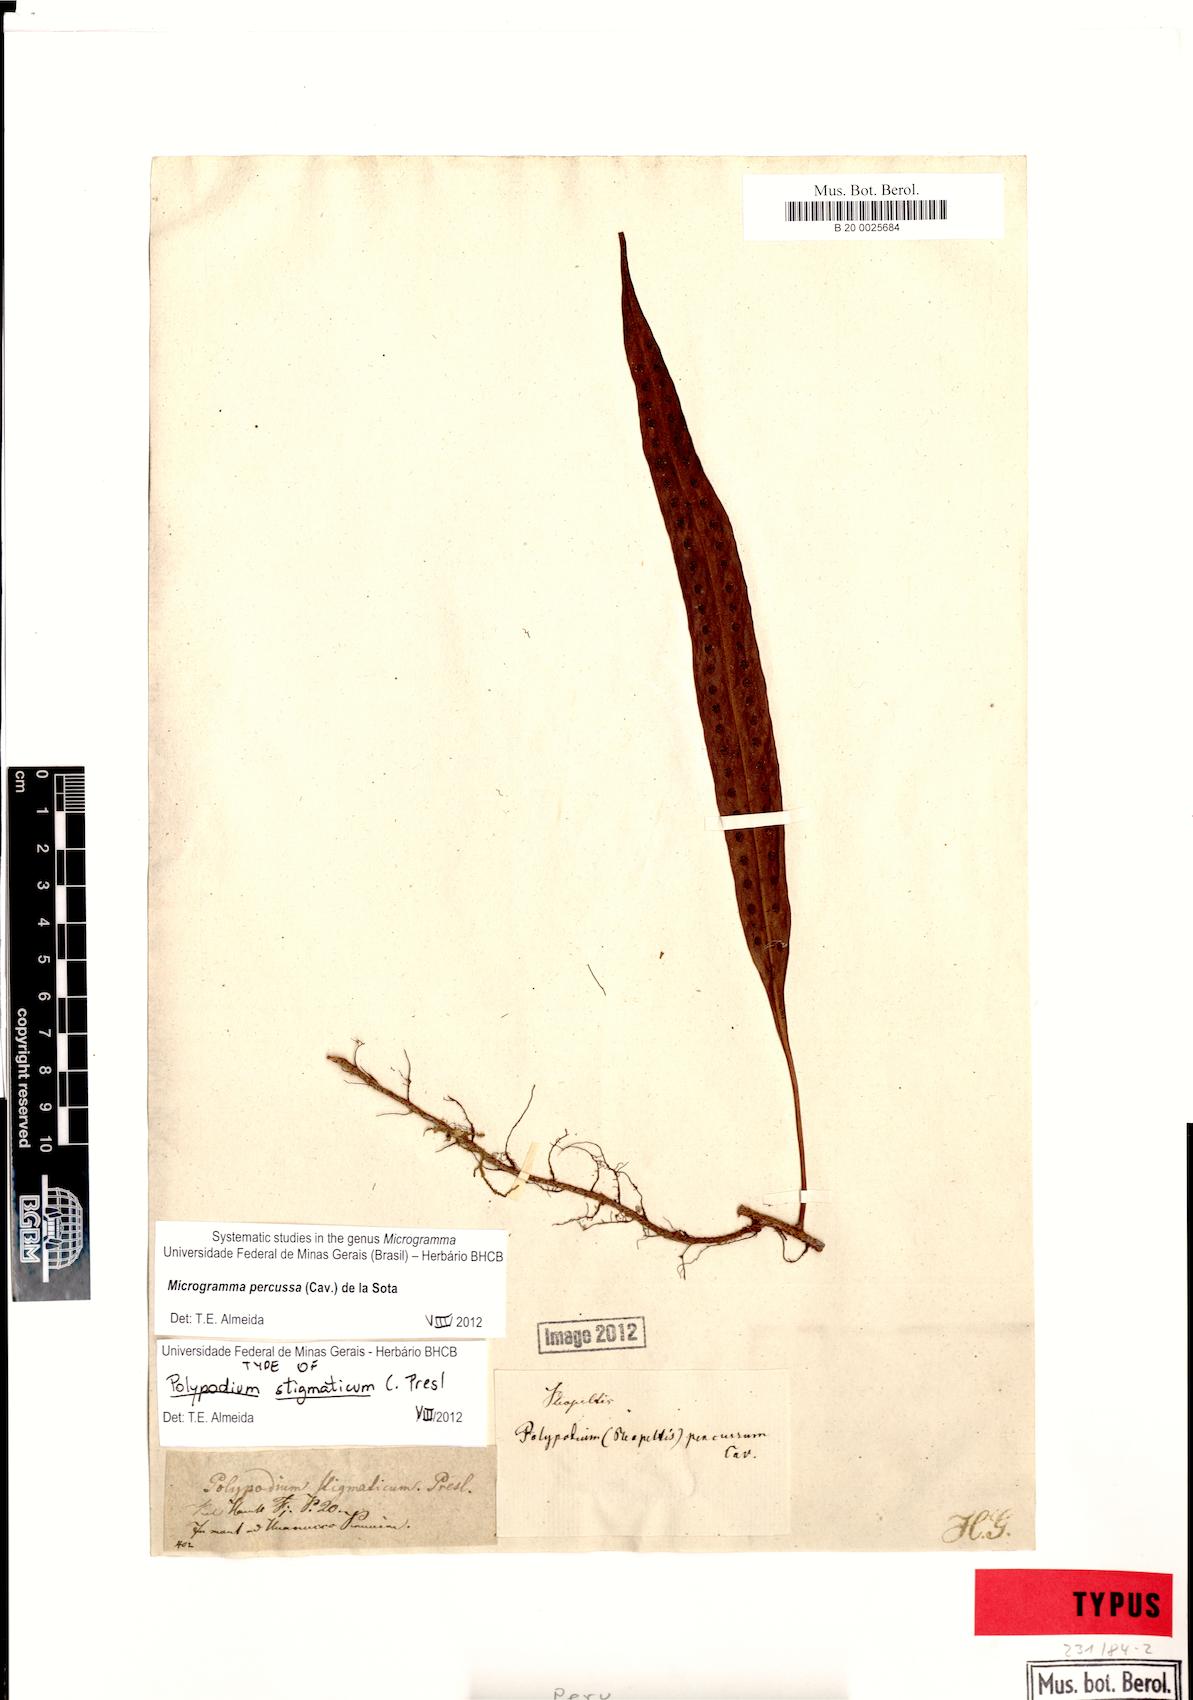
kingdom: Plantae
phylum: Tracheophyta
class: Polypodiopsida
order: Polypodiales
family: Polypodiaceae
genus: Microgramma
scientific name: Microgramma percussa
